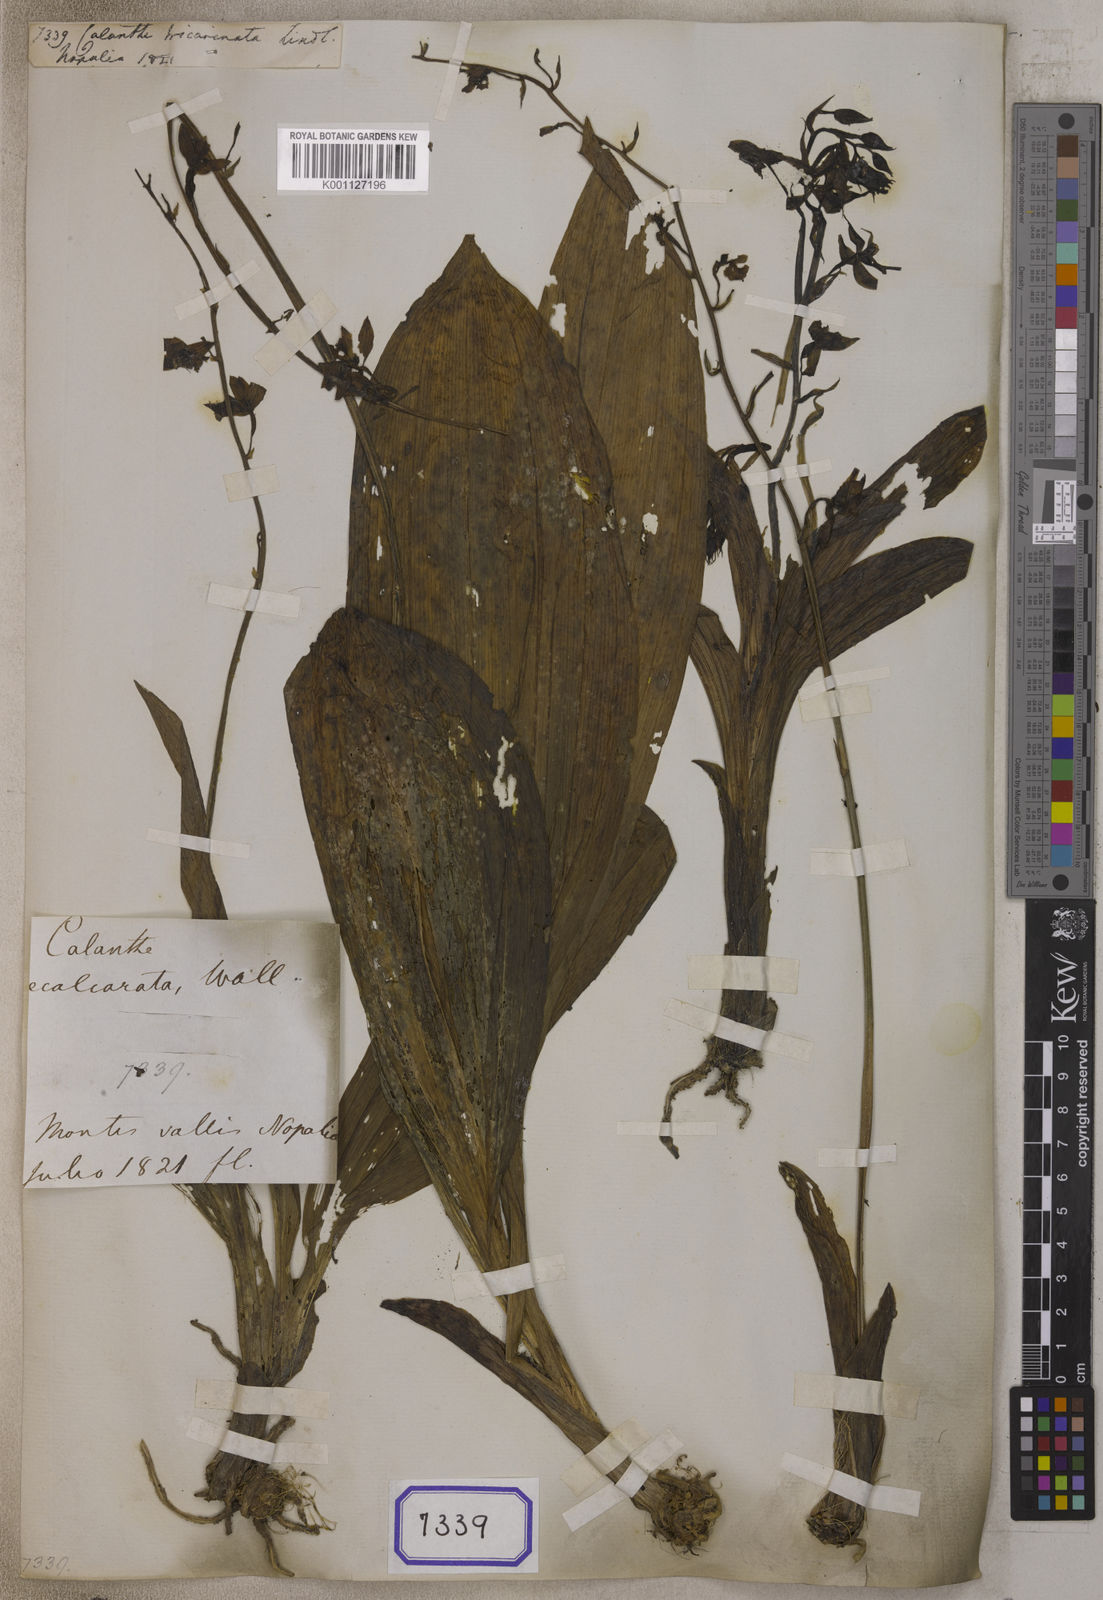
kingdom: Plantae
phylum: Tracheophyta
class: Liliopsida
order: Asparagales
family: Orchidaceae
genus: Calanthe
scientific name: Calanthe tricarinata
